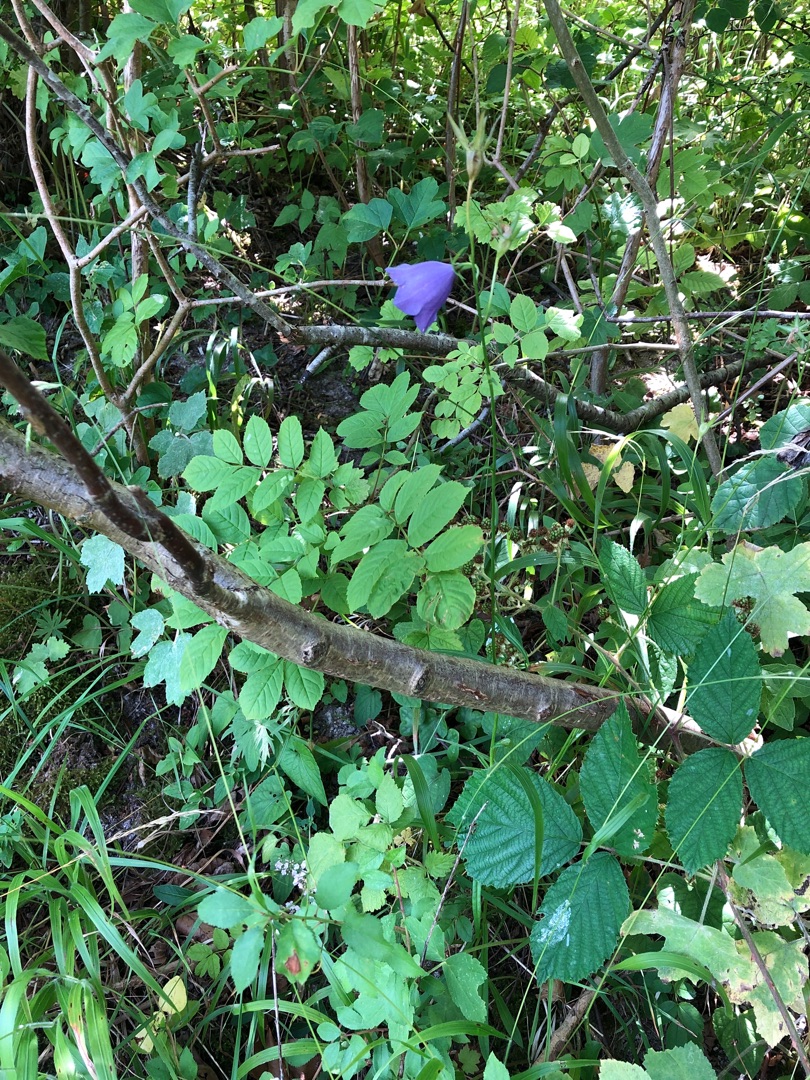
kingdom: Plantae
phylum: Tracheophyta
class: Magnoliopsida
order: Asterales
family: Campanulaceae
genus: Campanula
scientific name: Campanula persicifolia
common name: Smalbladet klokke
